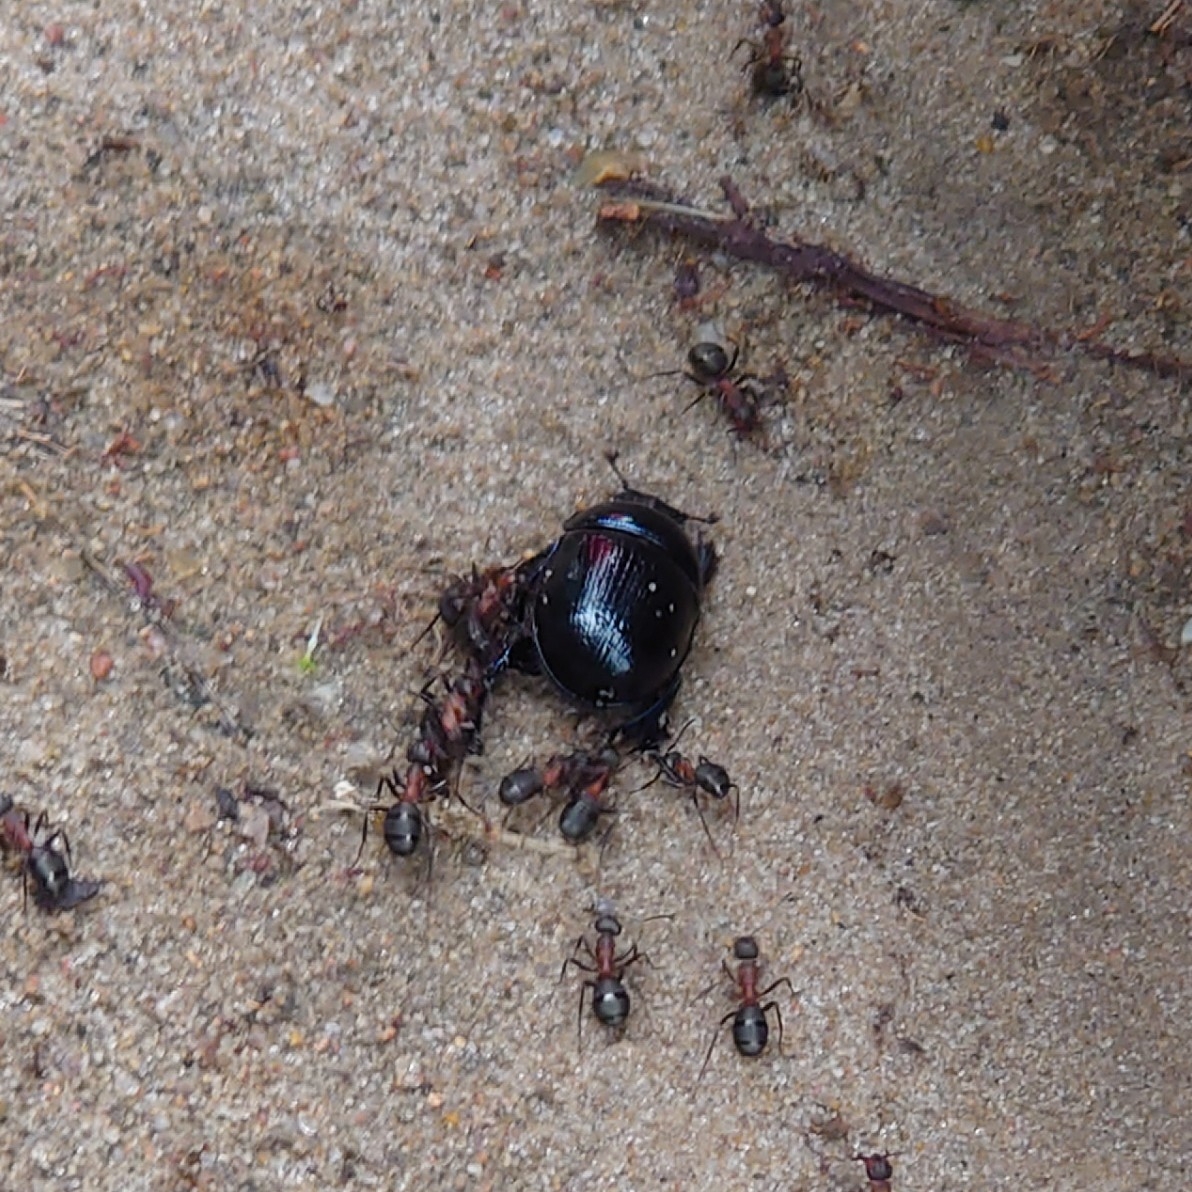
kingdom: Animalia
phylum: Arthropoda
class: Insecta
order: Coleoptera
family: Geotrupidae
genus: Anoplotrupes
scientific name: Anoplotrupes stercorosus
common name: Skovskarnbasse
